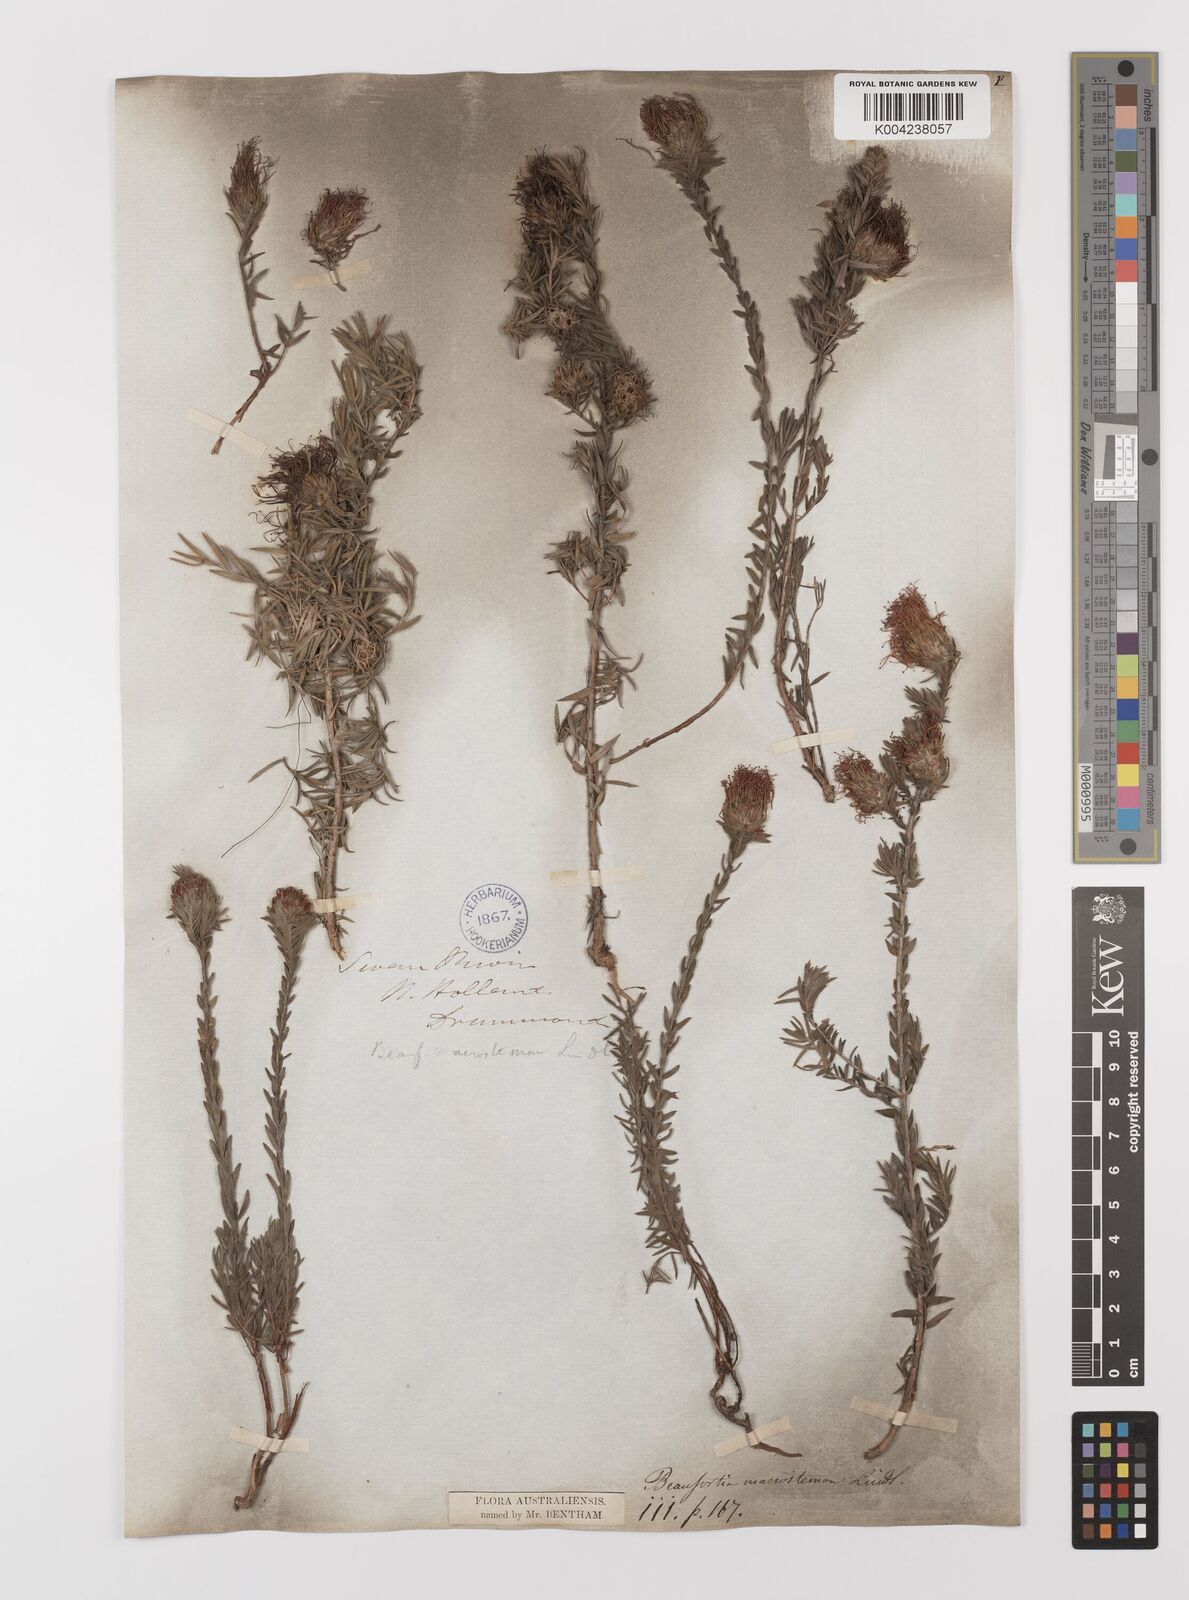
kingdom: Plantae
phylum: Tracheophyta
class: Magnoliopsida
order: Myrtales
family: Myrtaceae
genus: Melaleuca
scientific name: Melaleuca macrostemon
